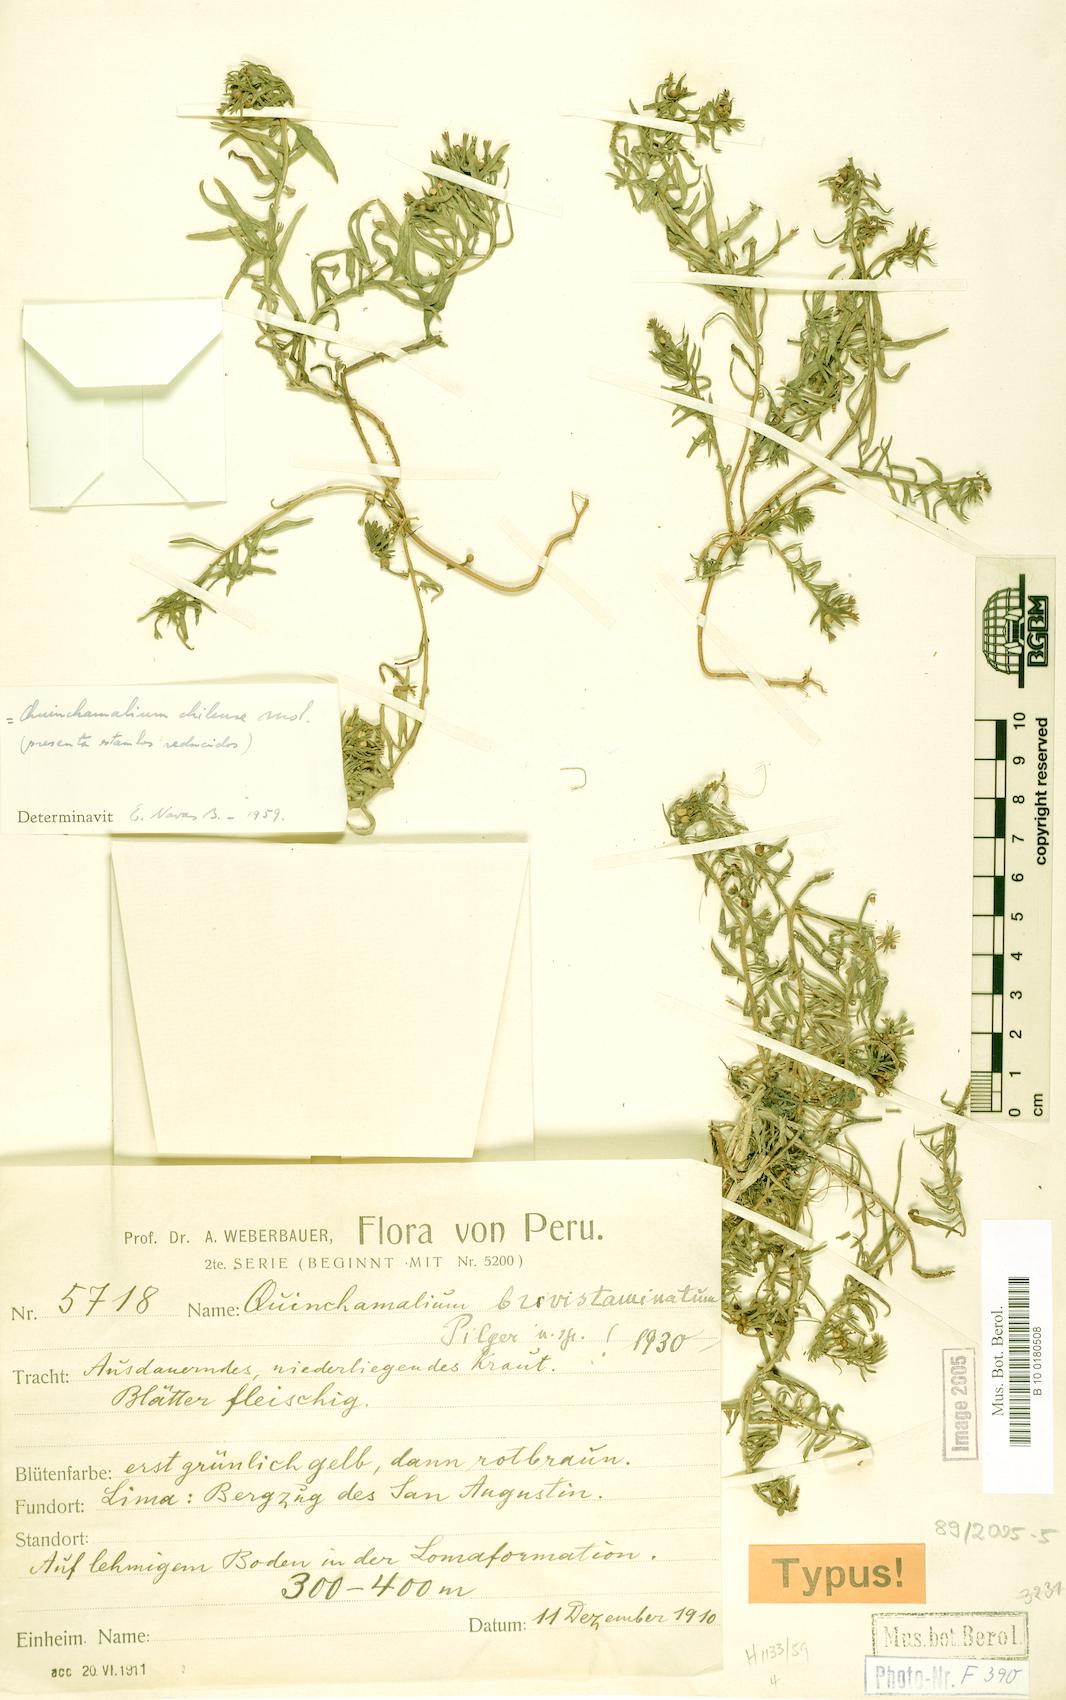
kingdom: Plantae
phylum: Tracheophyta
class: Magnoliopsida
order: Santalales
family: Schoepfiaceae
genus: Quinchamalium
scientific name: Quinchamalium chilense
